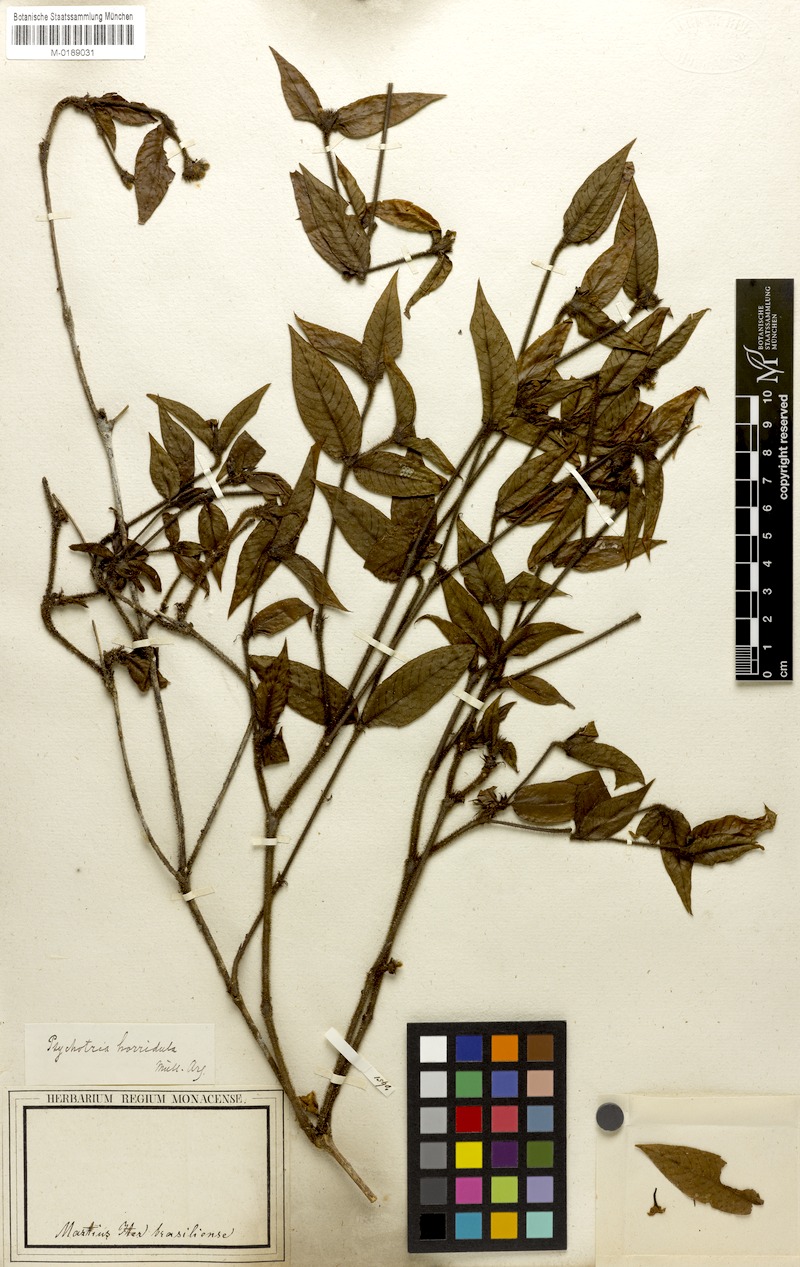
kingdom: Plantae
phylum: Tracheophyta
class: Magnoliopsida
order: Gentianales
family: Rubiaceae
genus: Palicourea
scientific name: Palicourea iodotricha
